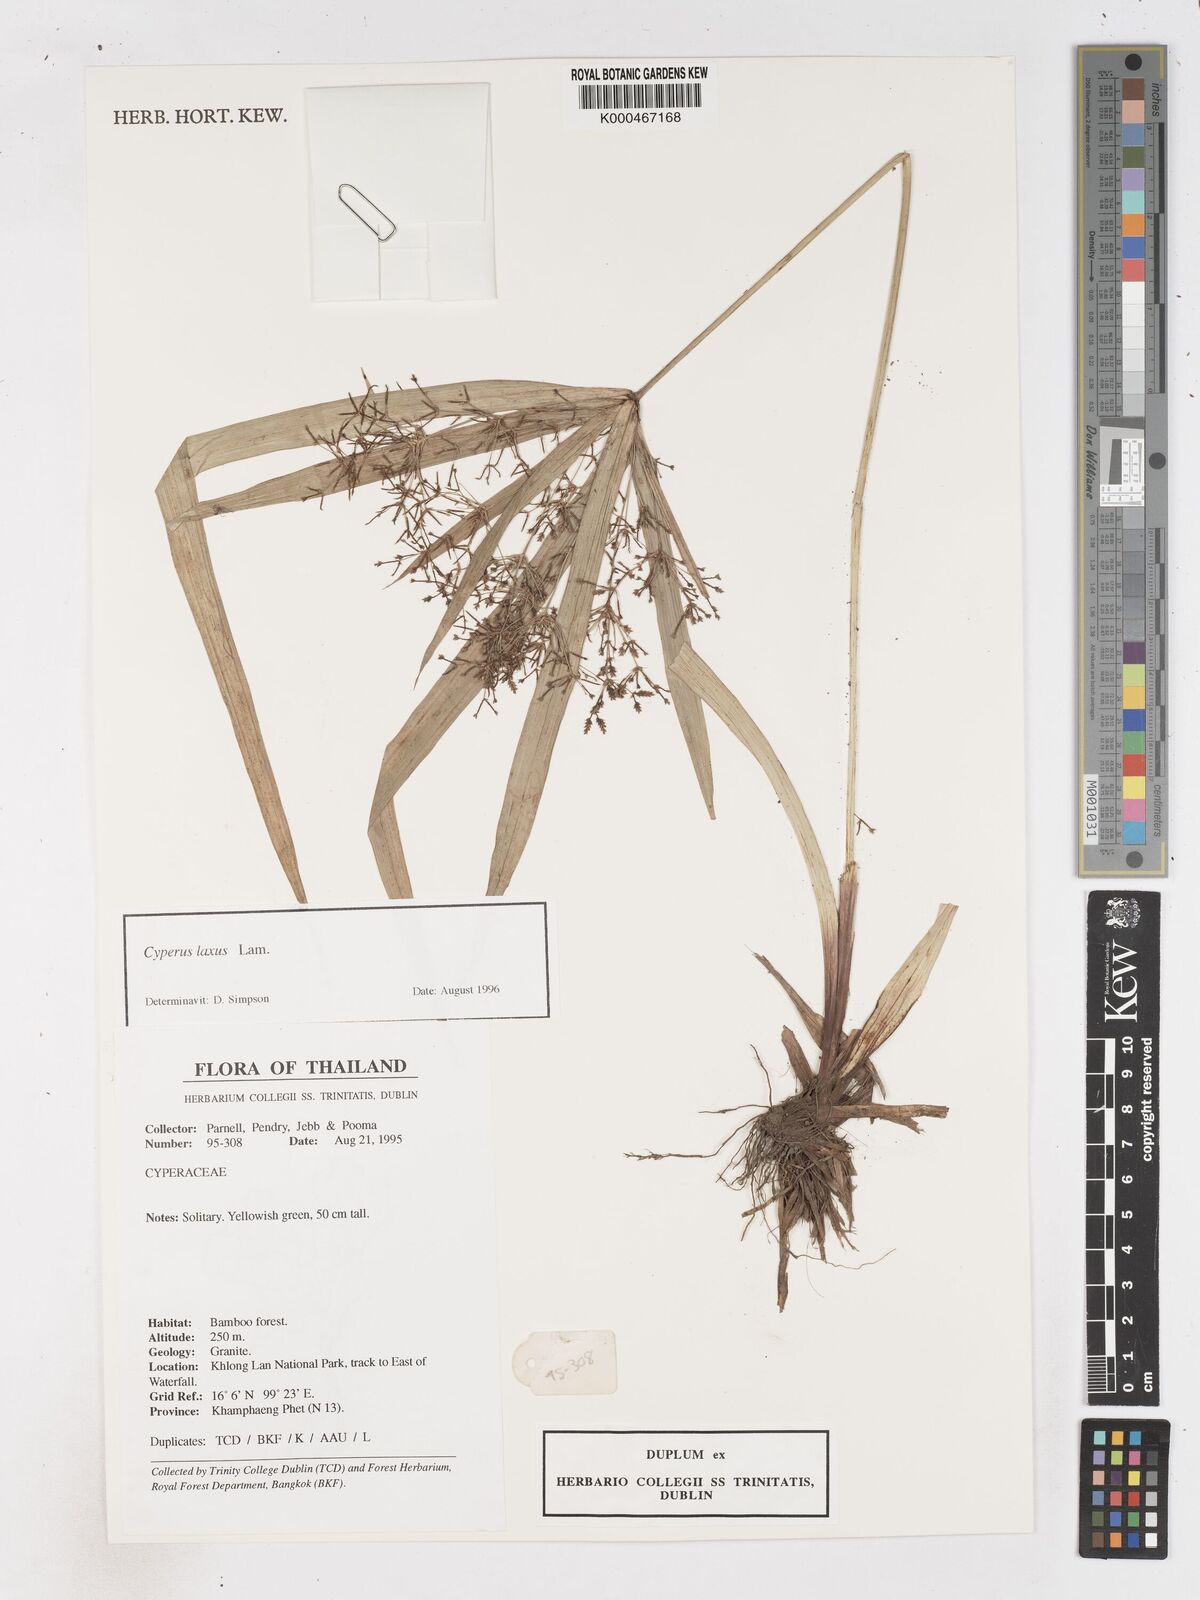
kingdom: Plantae
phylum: Tracheophyta
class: Liliopsida
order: Poales
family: Cyperaceae
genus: Cyperus
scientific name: Cyperus diffusus
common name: Dwarf umbrella grass
